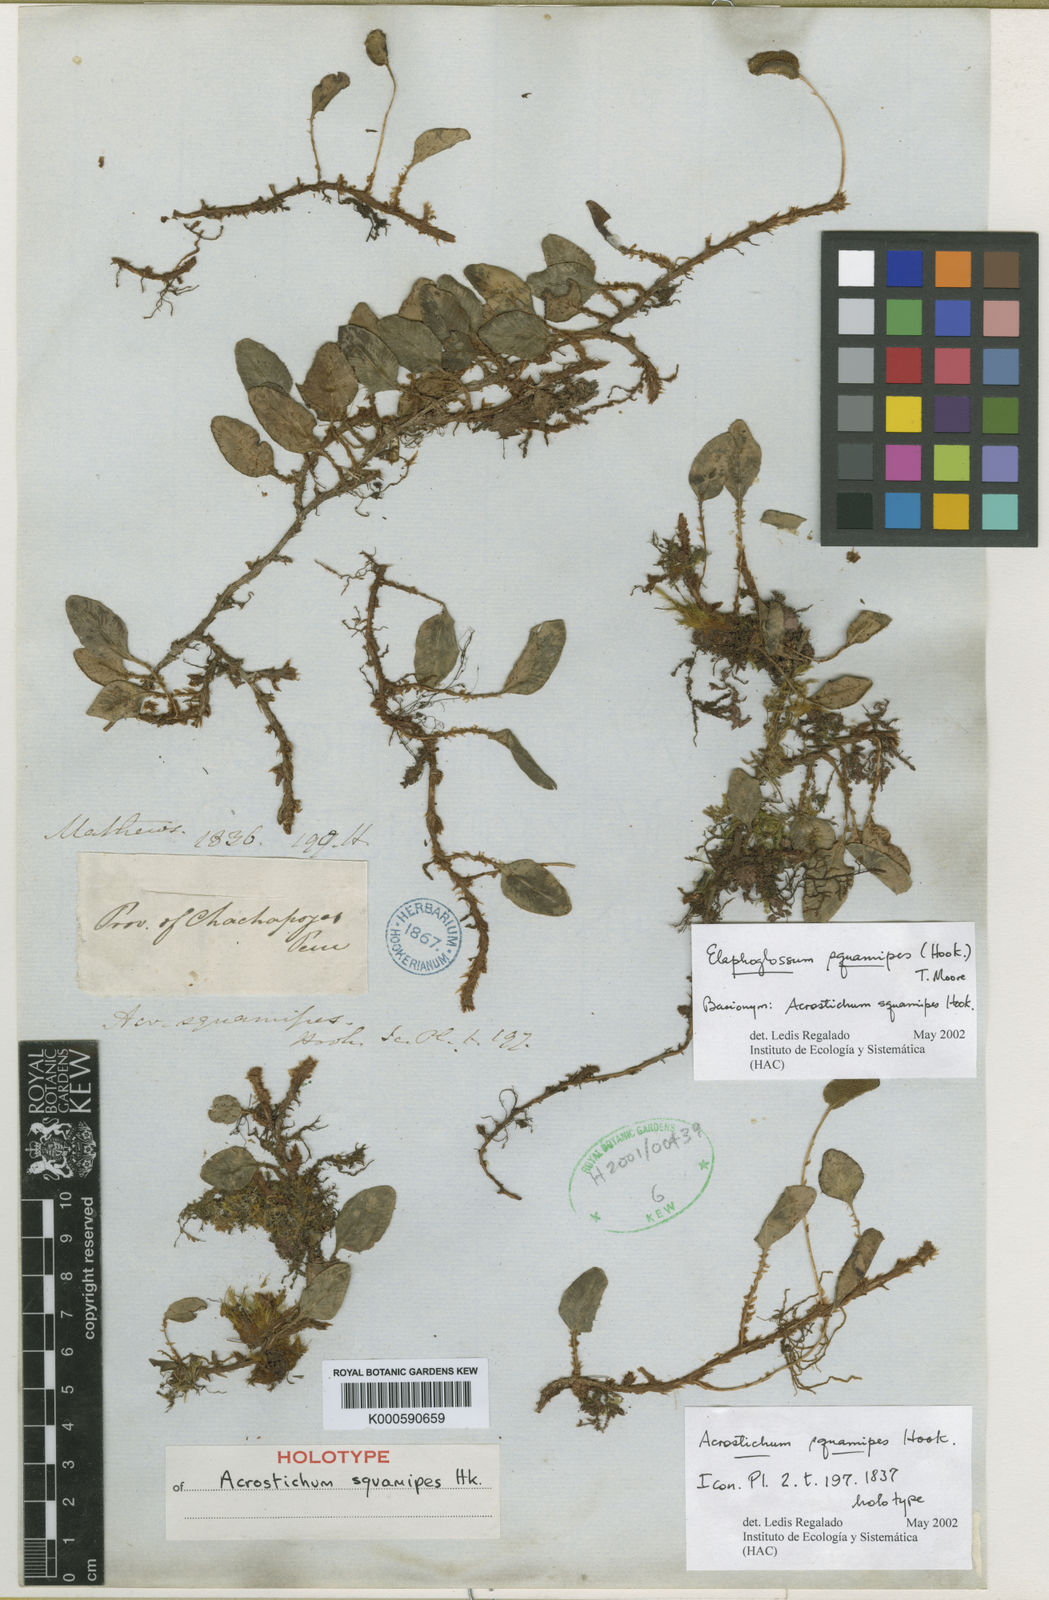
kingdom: Plantae
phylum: Tracheophyta
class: Polypodiopsida
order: Polypodiales
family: Dryopteridaceae
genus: Elaphoglossum
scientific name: Elaphoglossum squamipes
